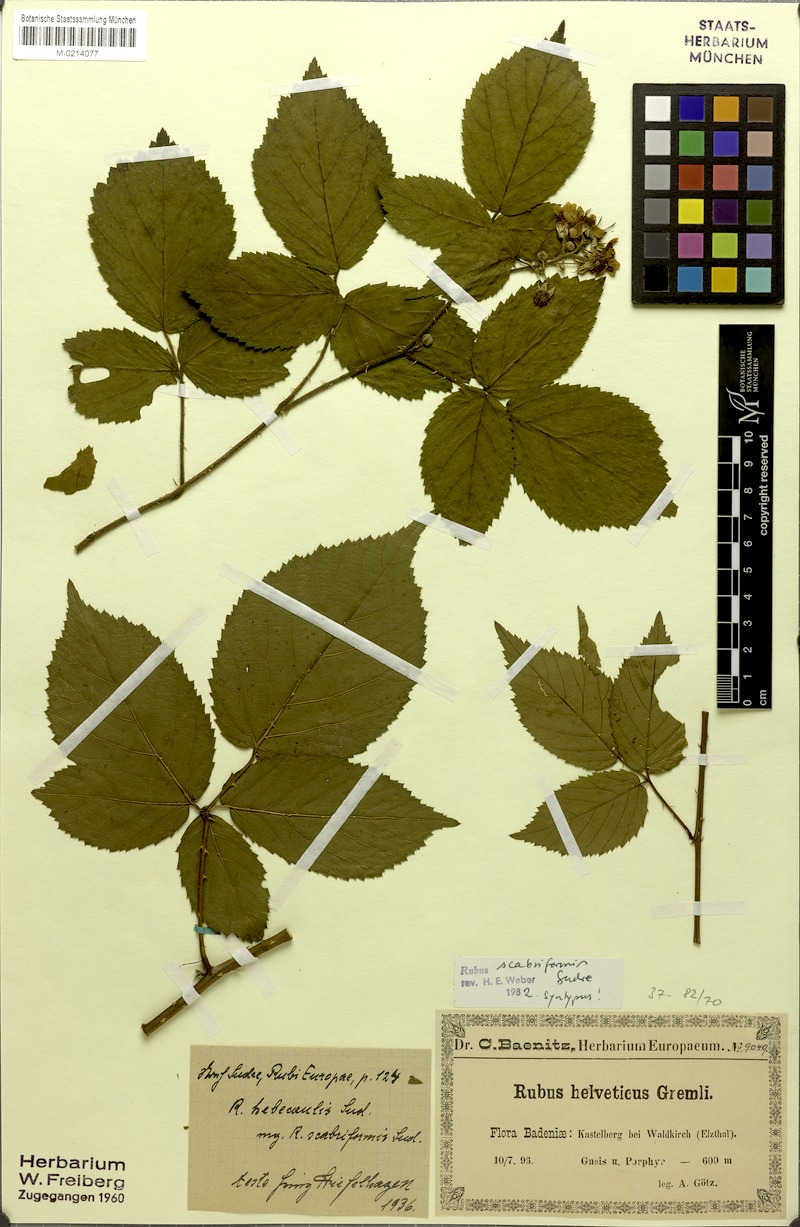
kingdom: Plantae
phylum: Tracheophyta
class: Magnoliopsida
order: Rosales
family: Rosaceae
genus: Rubus
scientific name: Rubus condensatus
